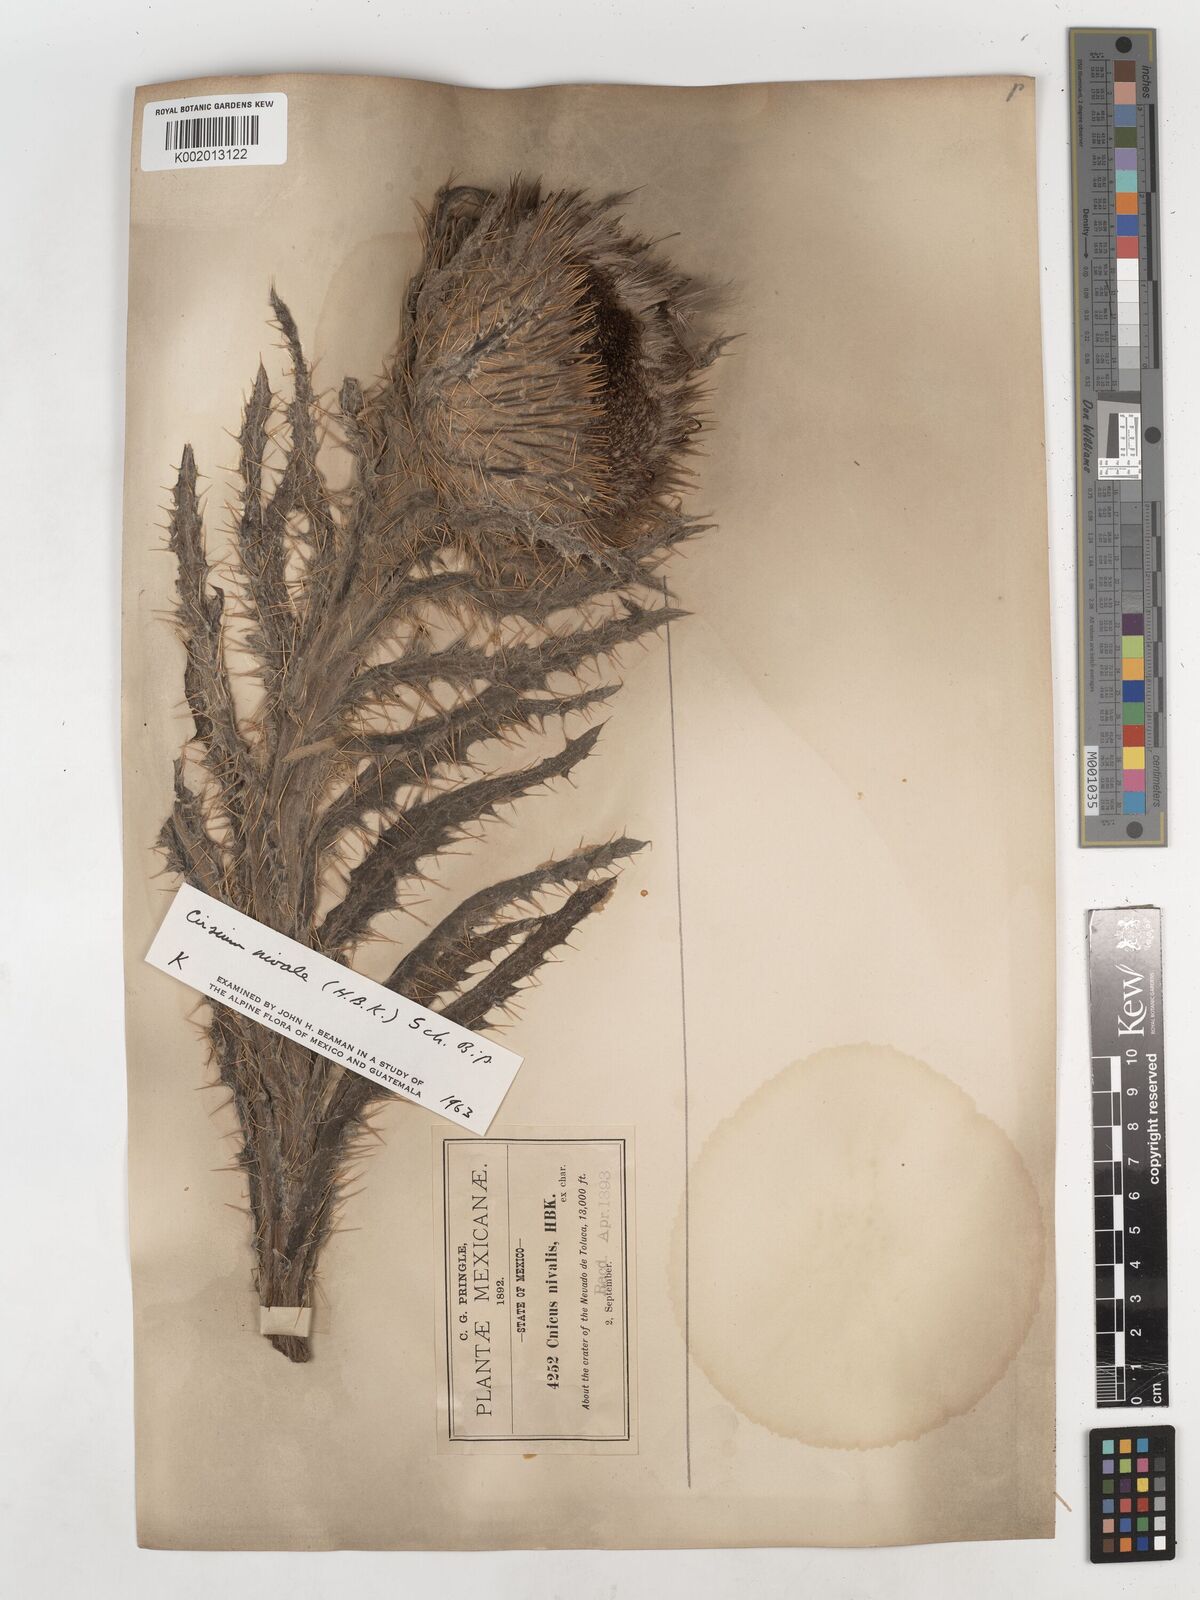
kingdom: Plantae
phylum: Tracheophyta
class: Magnoliopsida
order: Asterales
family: Asteraceae
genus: Cirsium
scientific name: Cirsium nivale
